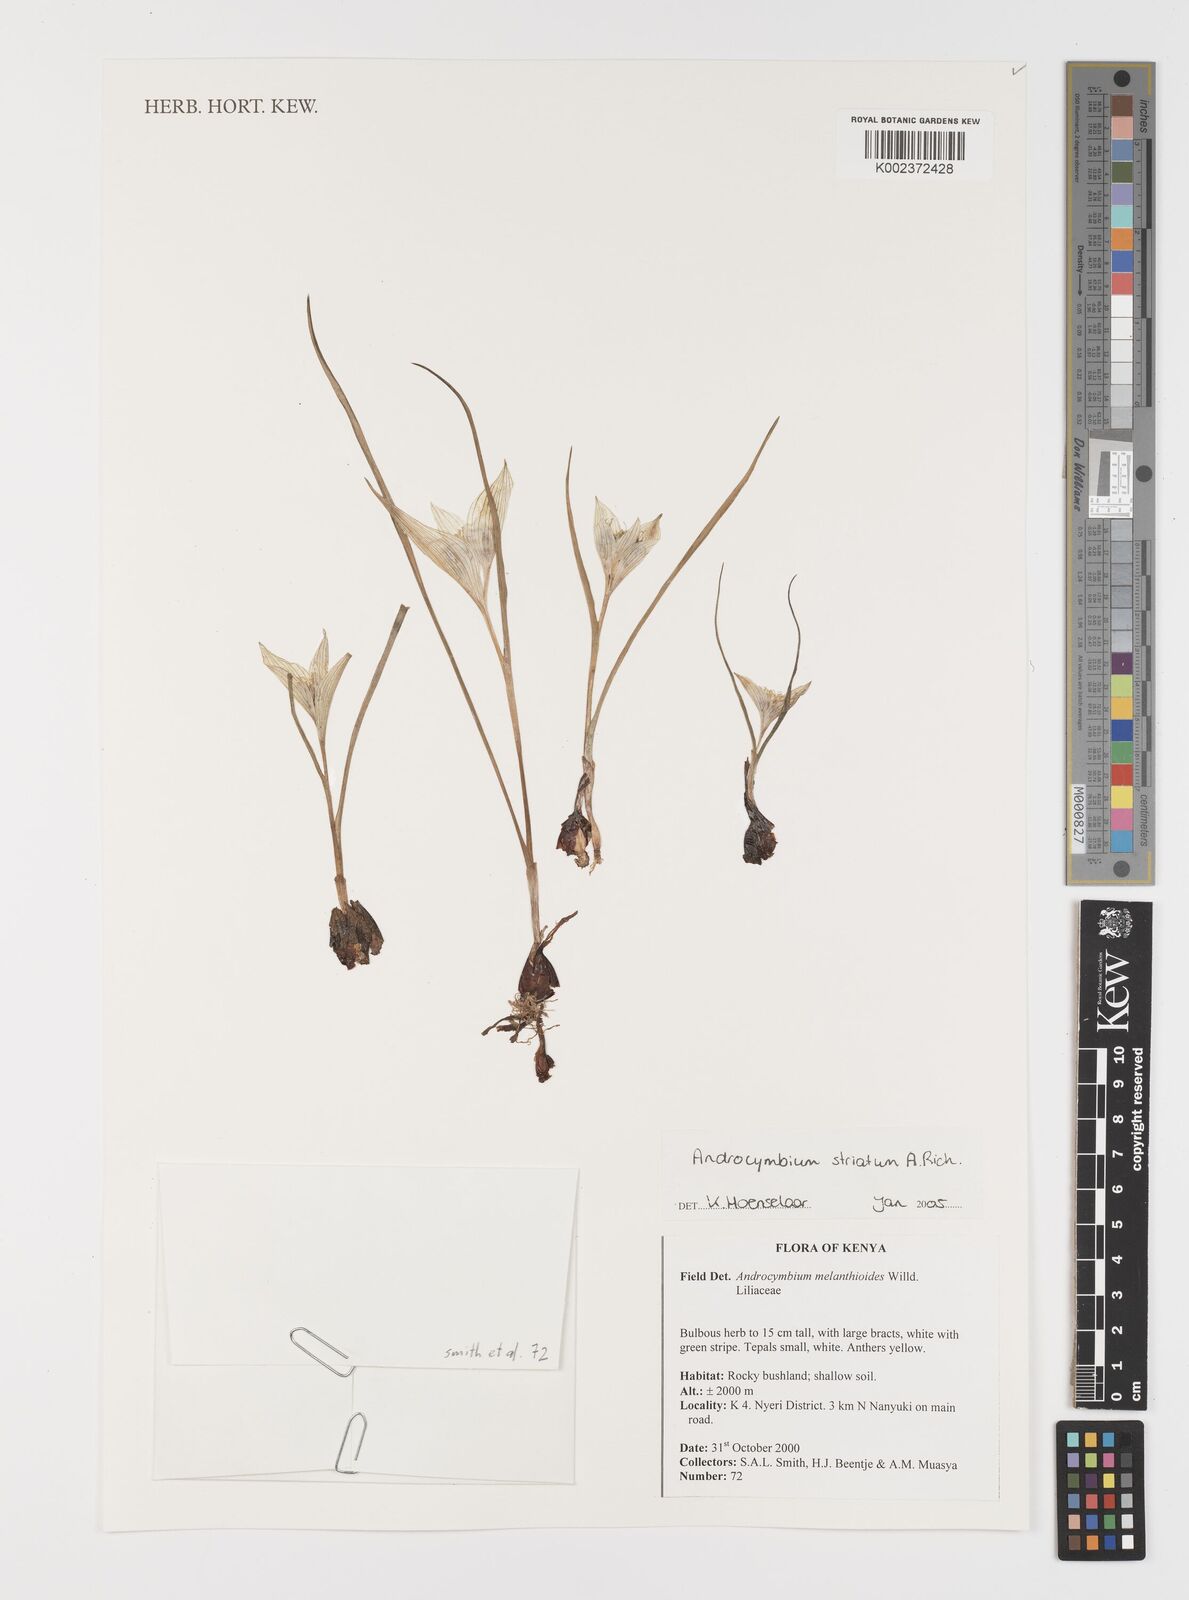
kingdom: Plantae
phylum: Tracheophyta
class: Liliopsida
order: Liliales
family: Colchicaceae
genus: Colchicum
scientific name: Colchicum striatum
